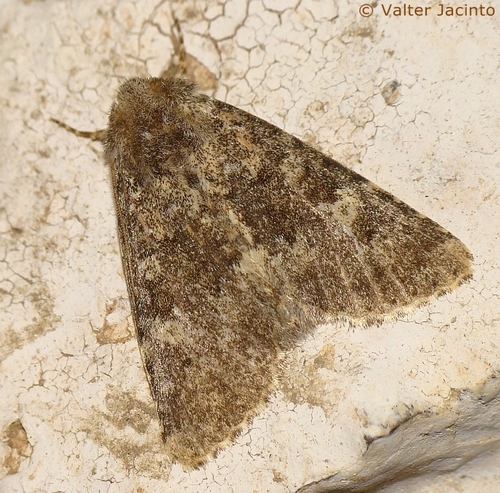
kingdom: Animalia
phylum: Arthropoda
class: Insecta
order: Lepidoptera
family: Noctuidae
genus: Polymixis
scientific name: Polymixis xanthomista
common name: Black-banded
